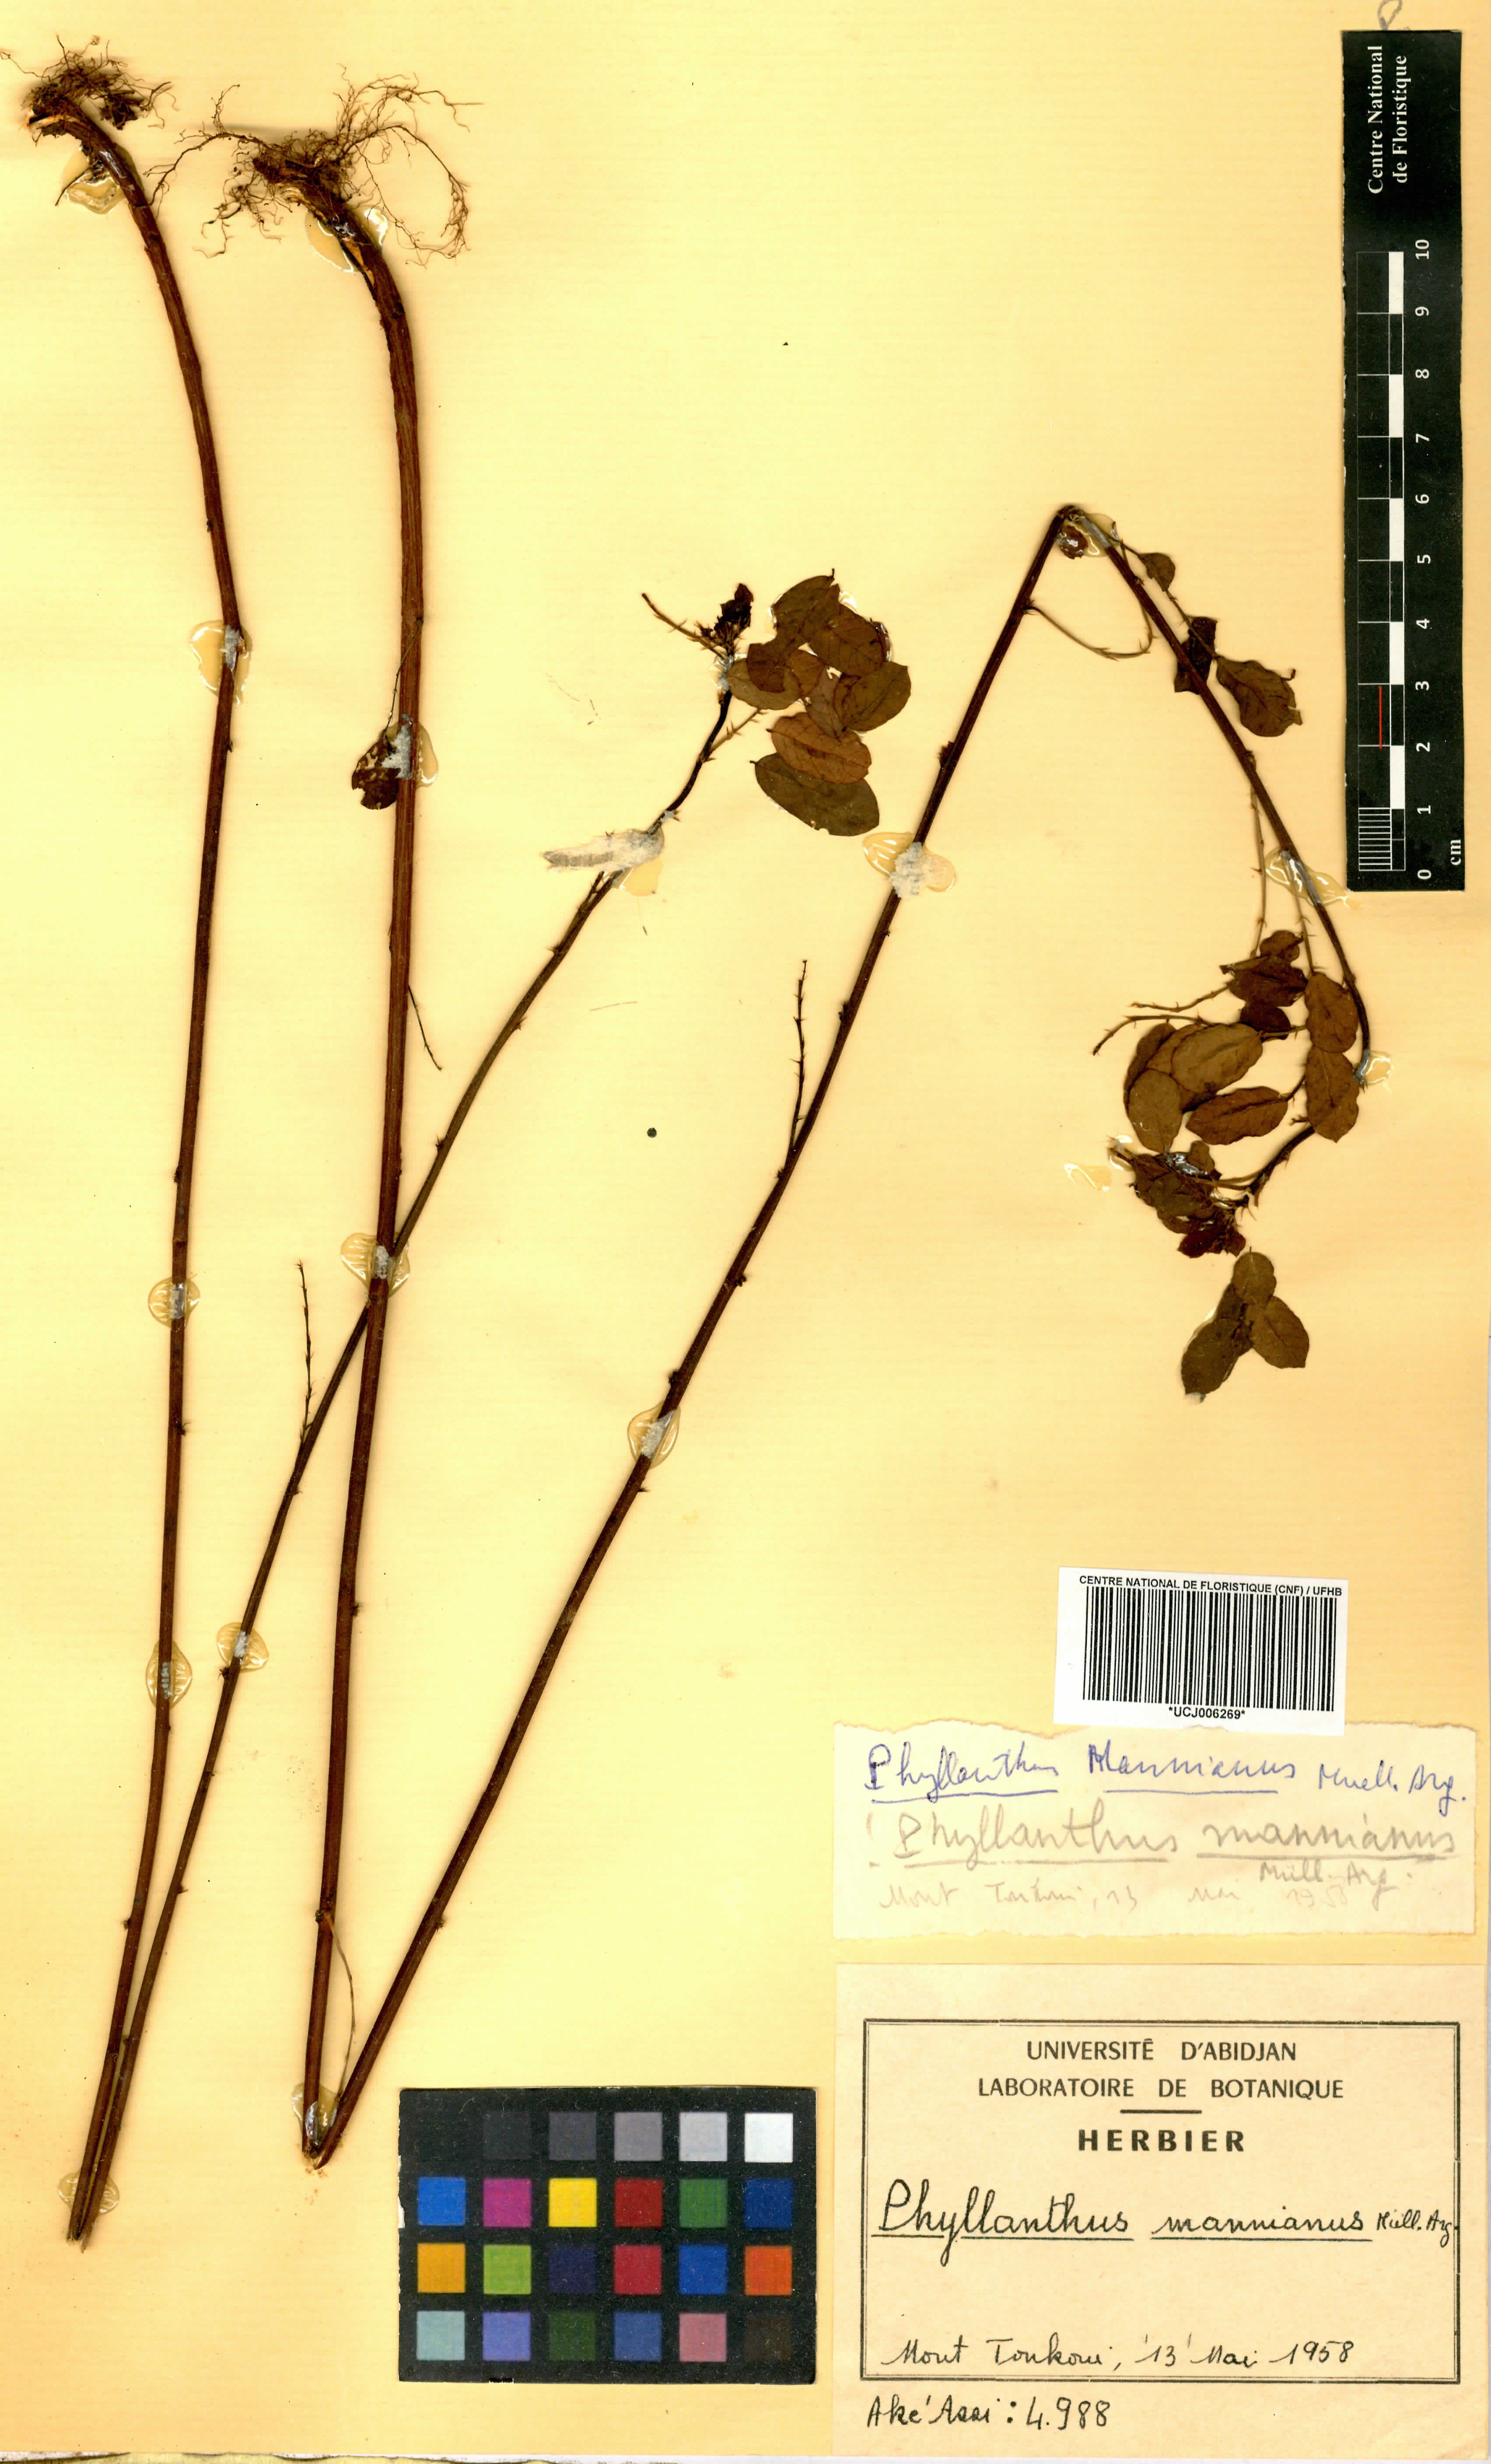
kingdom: Plantae
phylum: Tracheophyta
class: Magnoliopsida
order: Malpighiales
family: Phyllanthaceae
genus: Phyllanthus
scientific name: Phyllanthus mannianus
